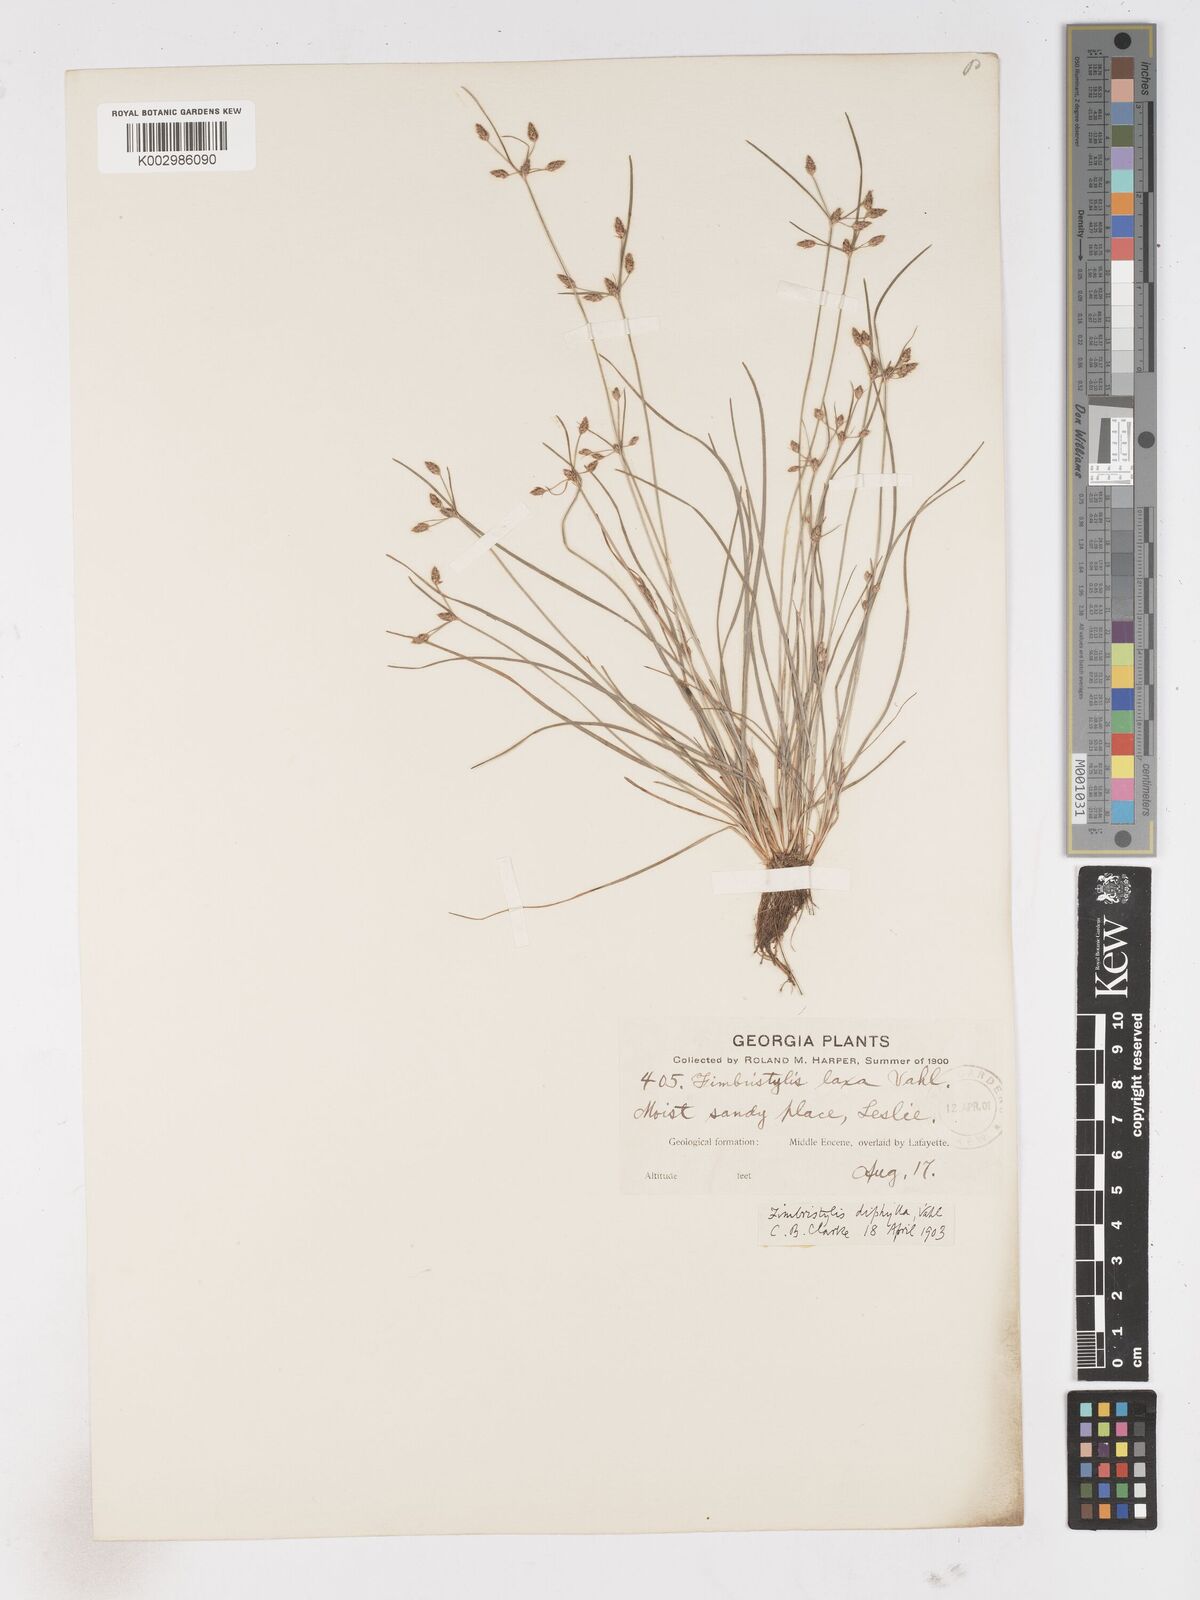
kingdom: Plantae
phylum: Tracheophyta
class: Liliopsida
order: Poales
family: Cyperaceae
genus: Fimbristylis
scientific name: Fimbristylis dichotoma
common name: Forked fimbry
